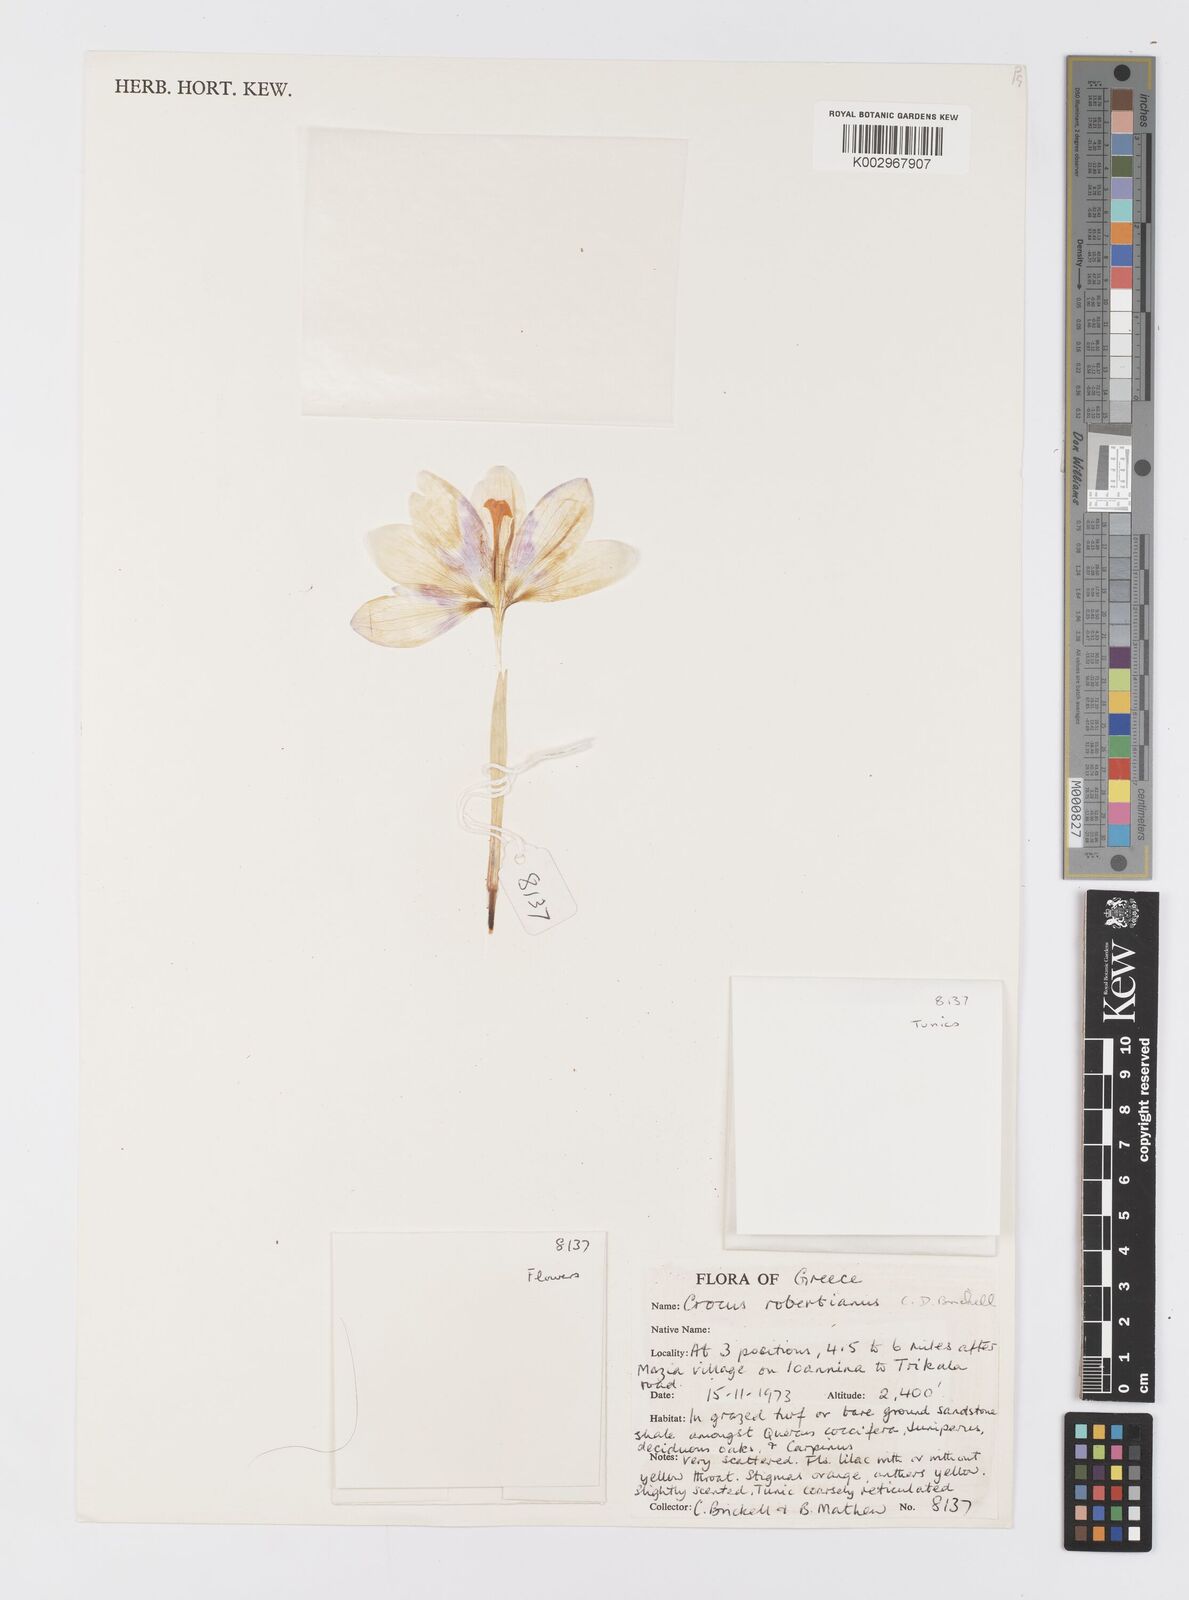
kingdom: Plantae
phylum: Tracheophyta
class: Liliopsida
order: Asparagales
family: Iridaceae
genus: Crocus
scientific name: Crocus robertianus
